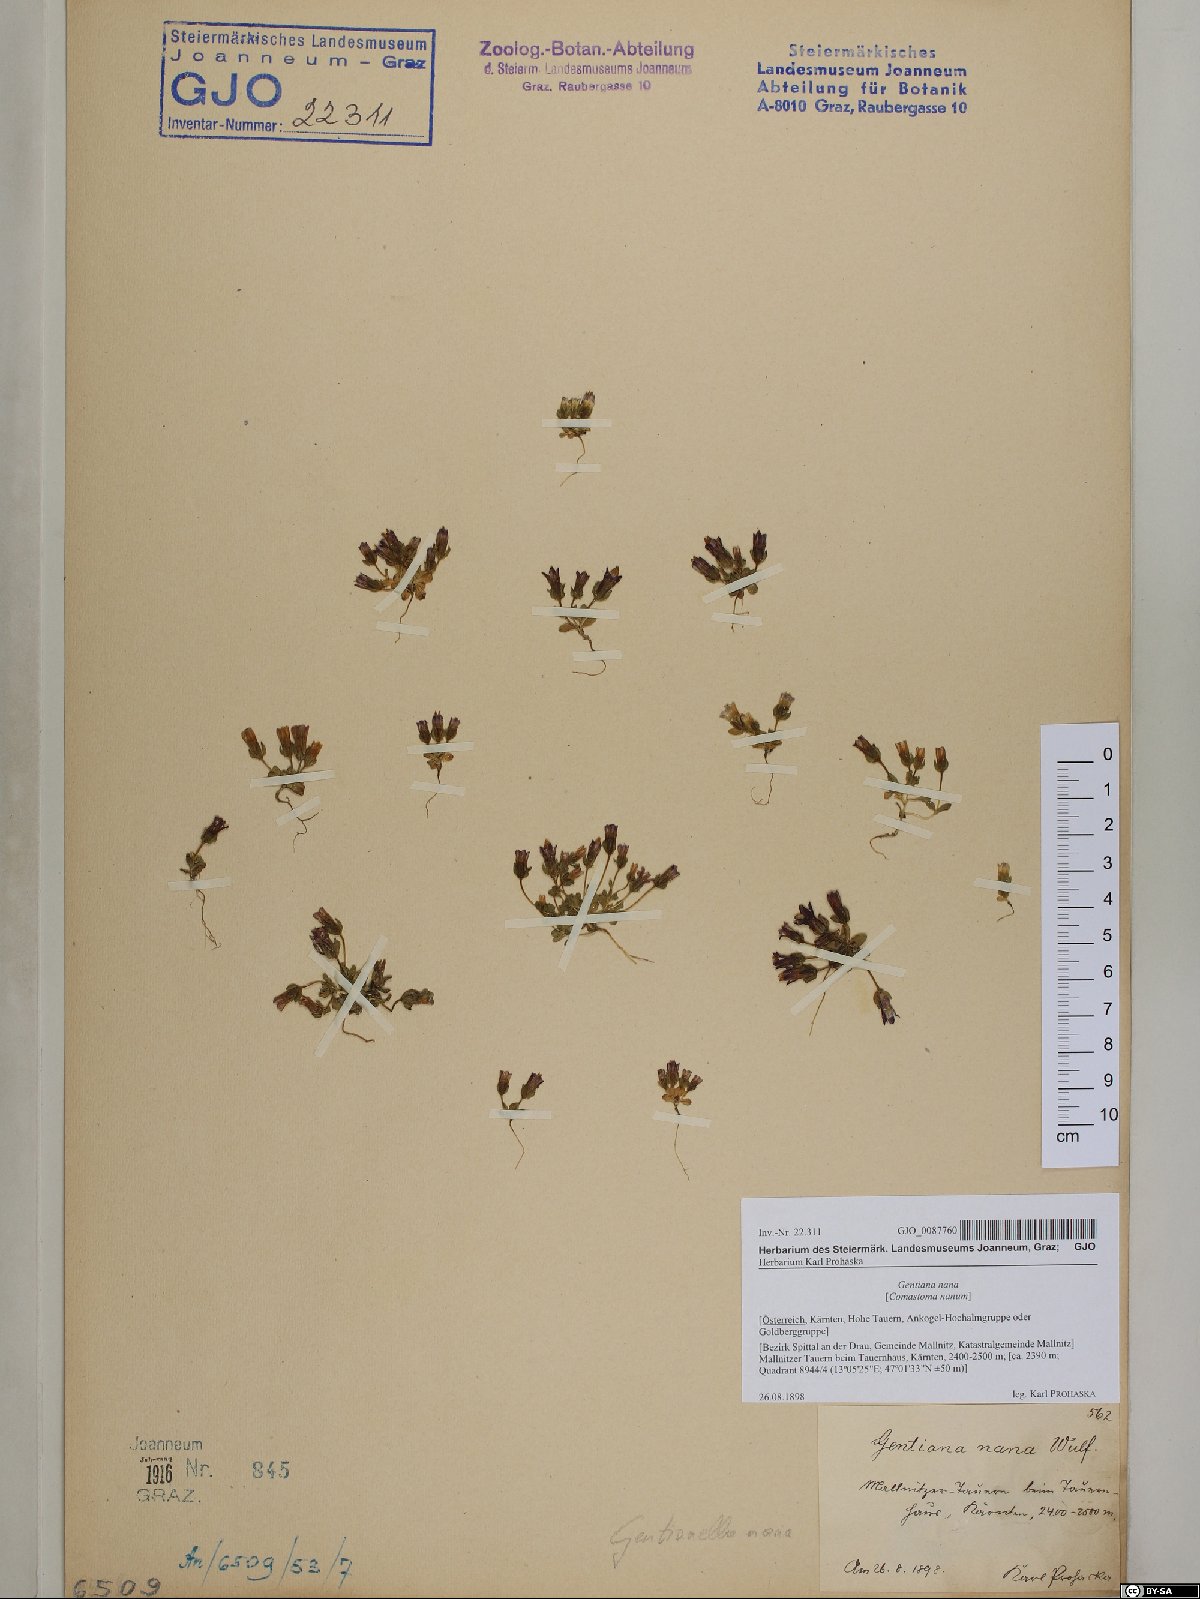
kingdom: Plantae
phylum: Tracheophyta
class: Magnoliopsida
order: Gentianales
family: Gentianaceae
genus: Comastoma
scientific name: Comastoma nanum
